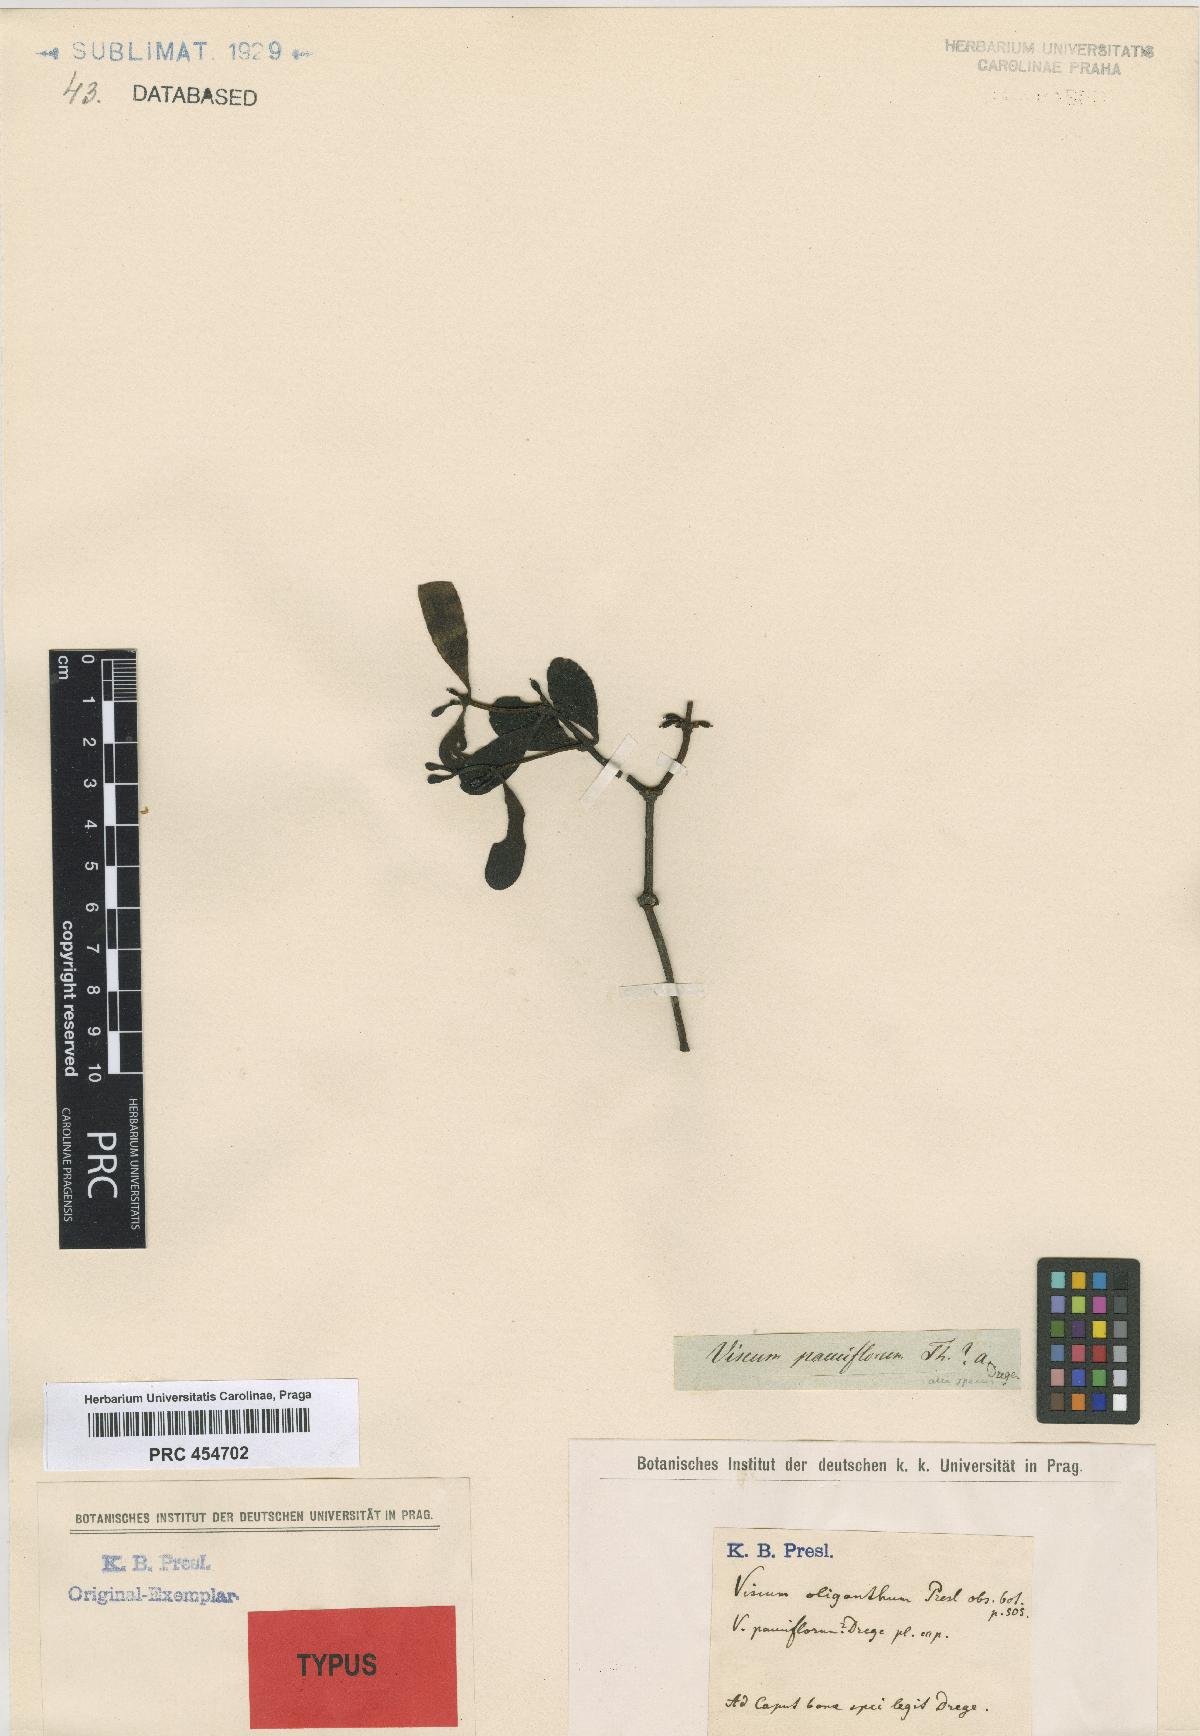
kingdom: Plantae
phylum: Tracheophyta
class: Magnoliopsida
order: Santalales
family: Viscaceae
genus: Viscum
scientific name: Viscum obscurum
